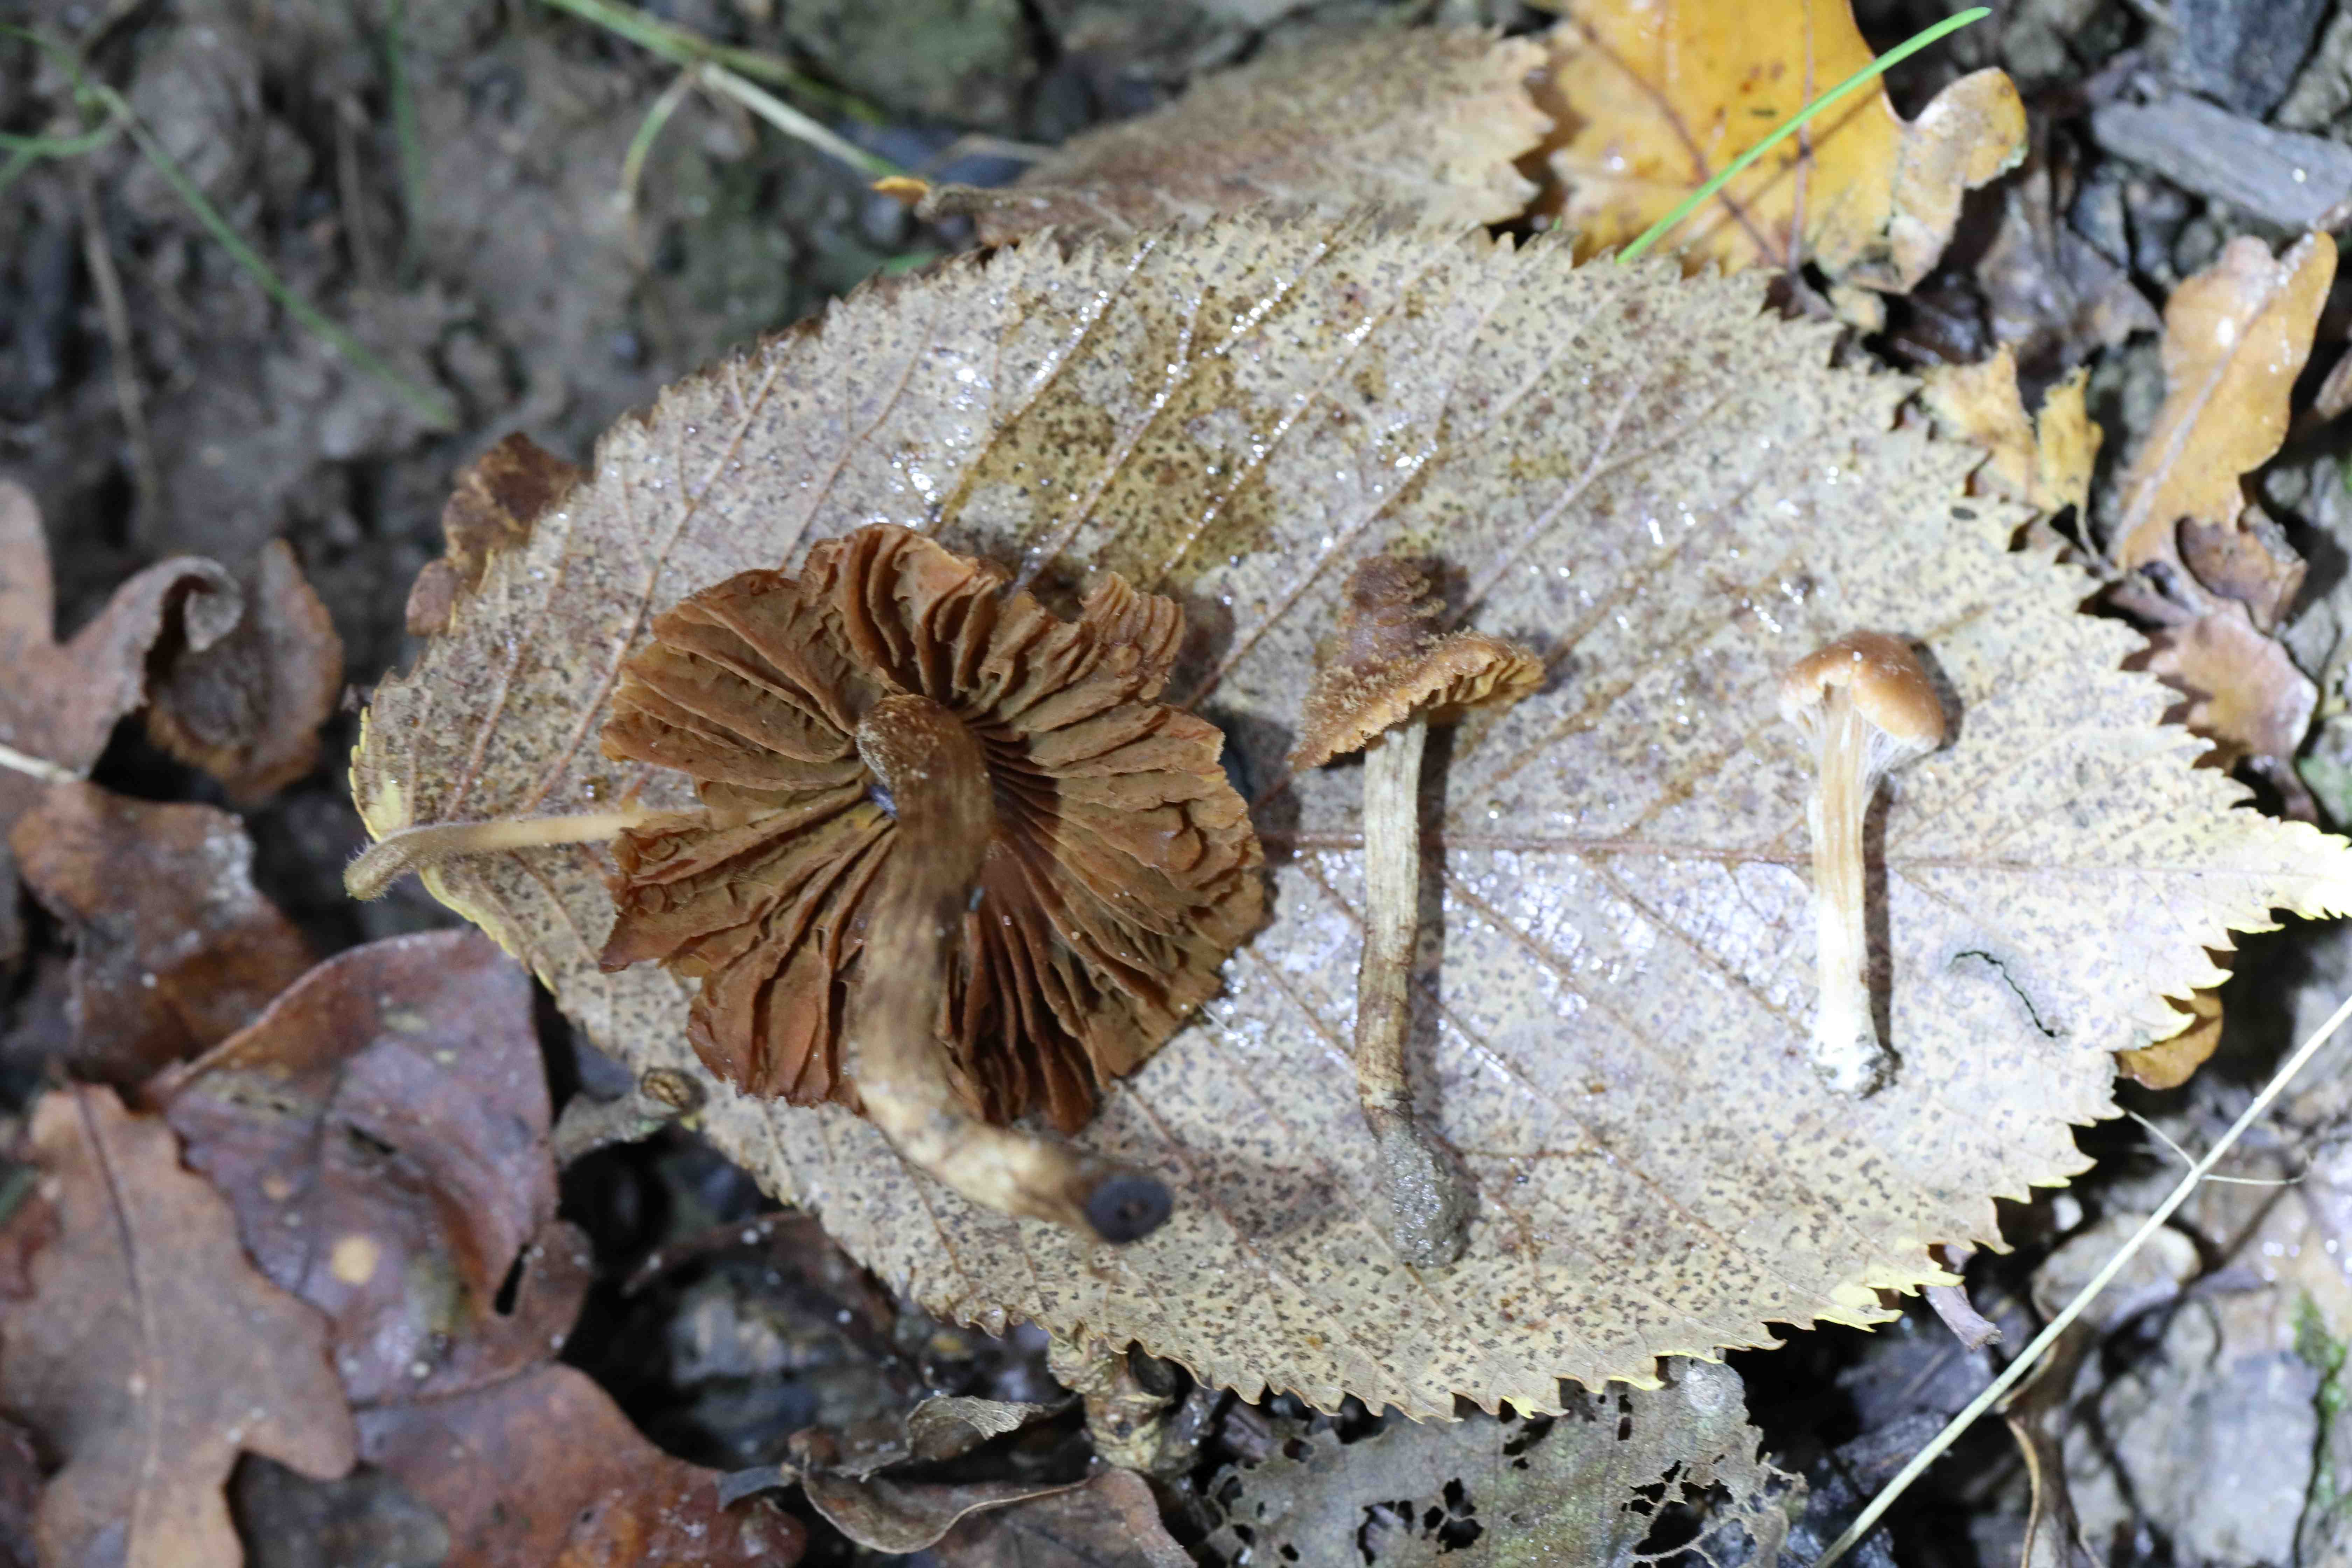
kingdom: Fungi
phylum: Basidiomycota
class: Agaricomycetes
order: Agaricales
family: Cortinariaceae
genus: Cortinarius
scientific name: Cortinarius quercoconicus
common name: agernskål-slørhat
